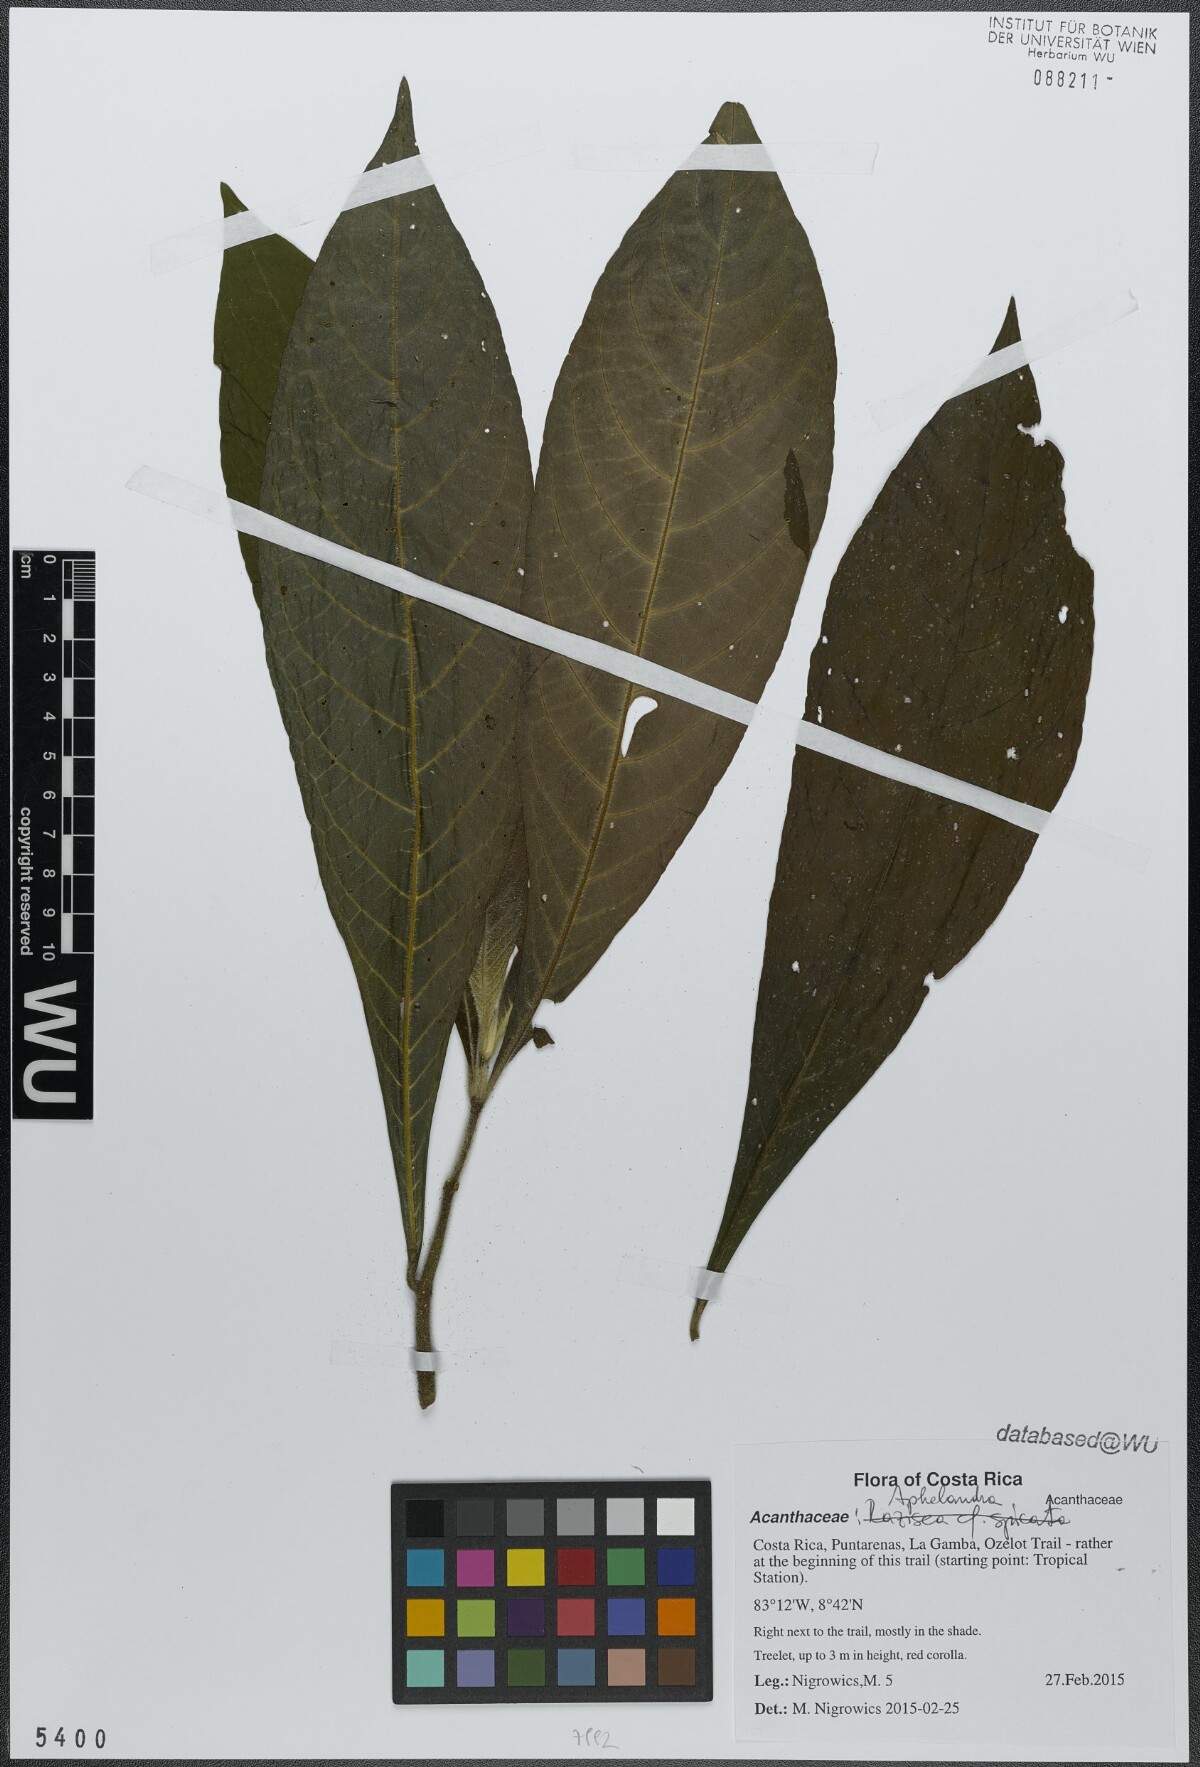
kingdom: Plantae
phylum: Tracheophyta
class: Magnoliopsida
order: Lamiales
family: Acanthaceae
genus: Aphelandra
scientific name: Aphelandra golfodulcensis
